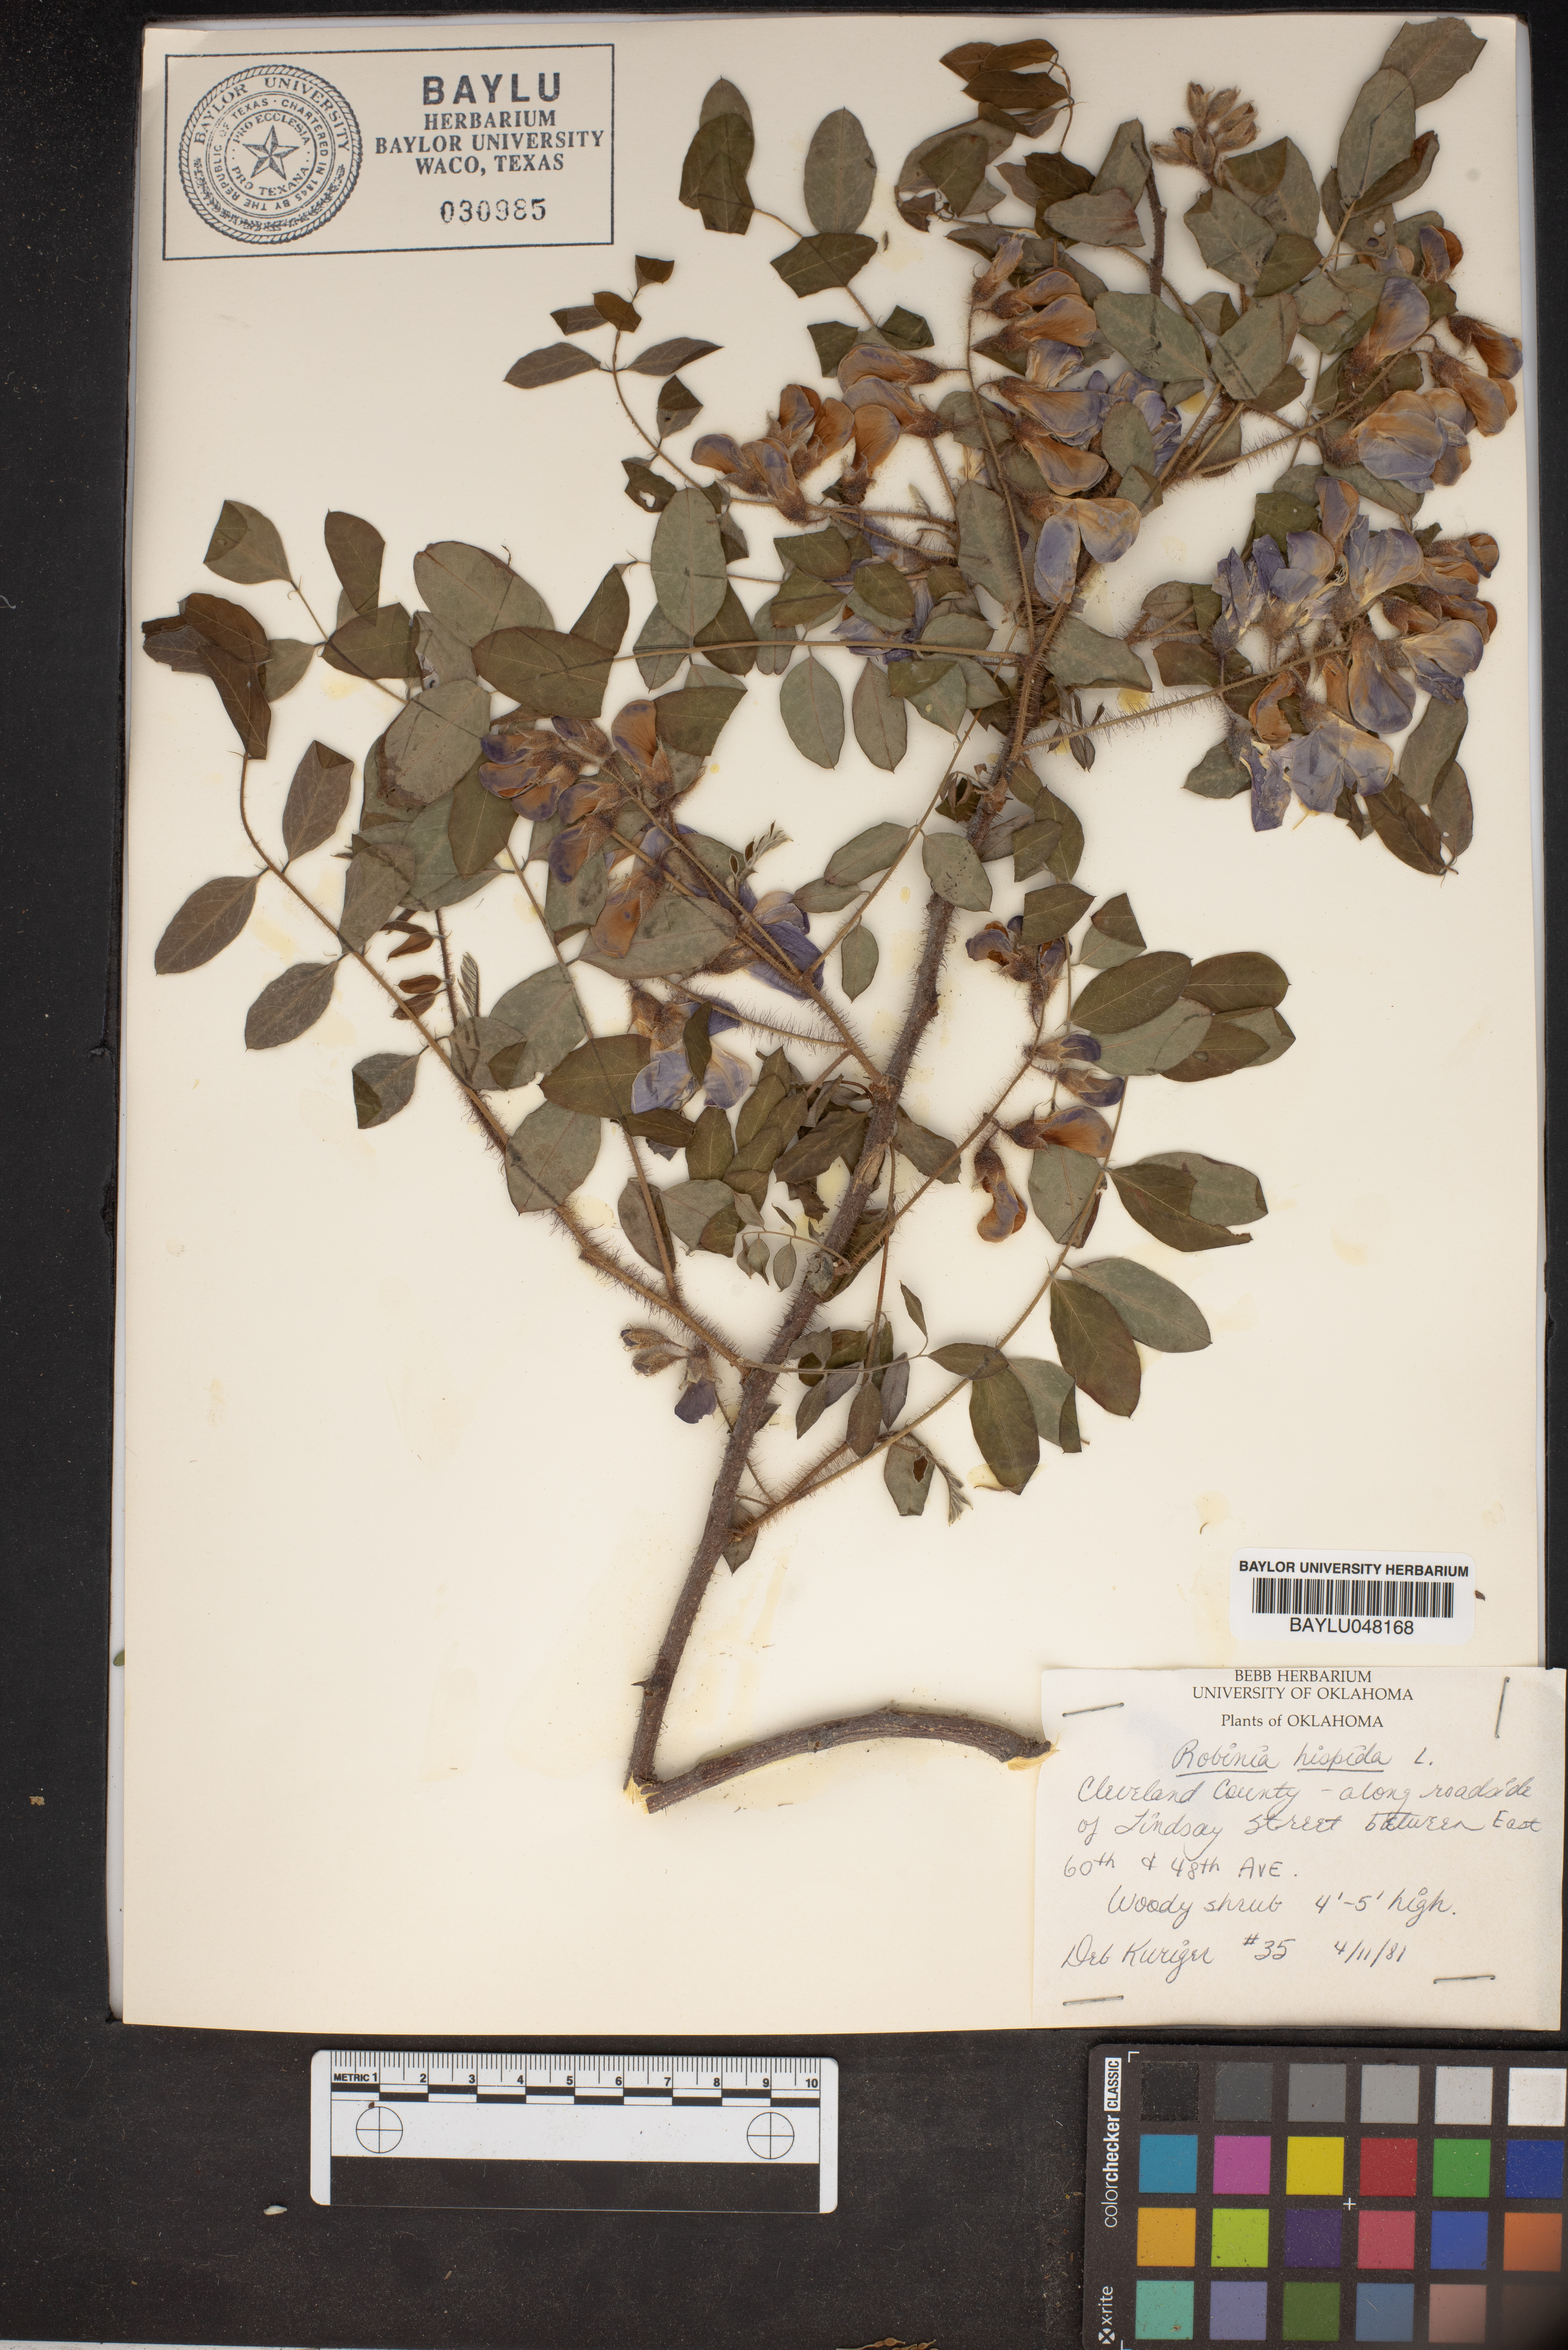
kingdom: Plantae
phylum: Tracheophyta
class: Magnoliopsida
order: Fabales
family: Fabaceae
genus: Robinia
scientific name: Robinia hispida
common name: Bristly locust
